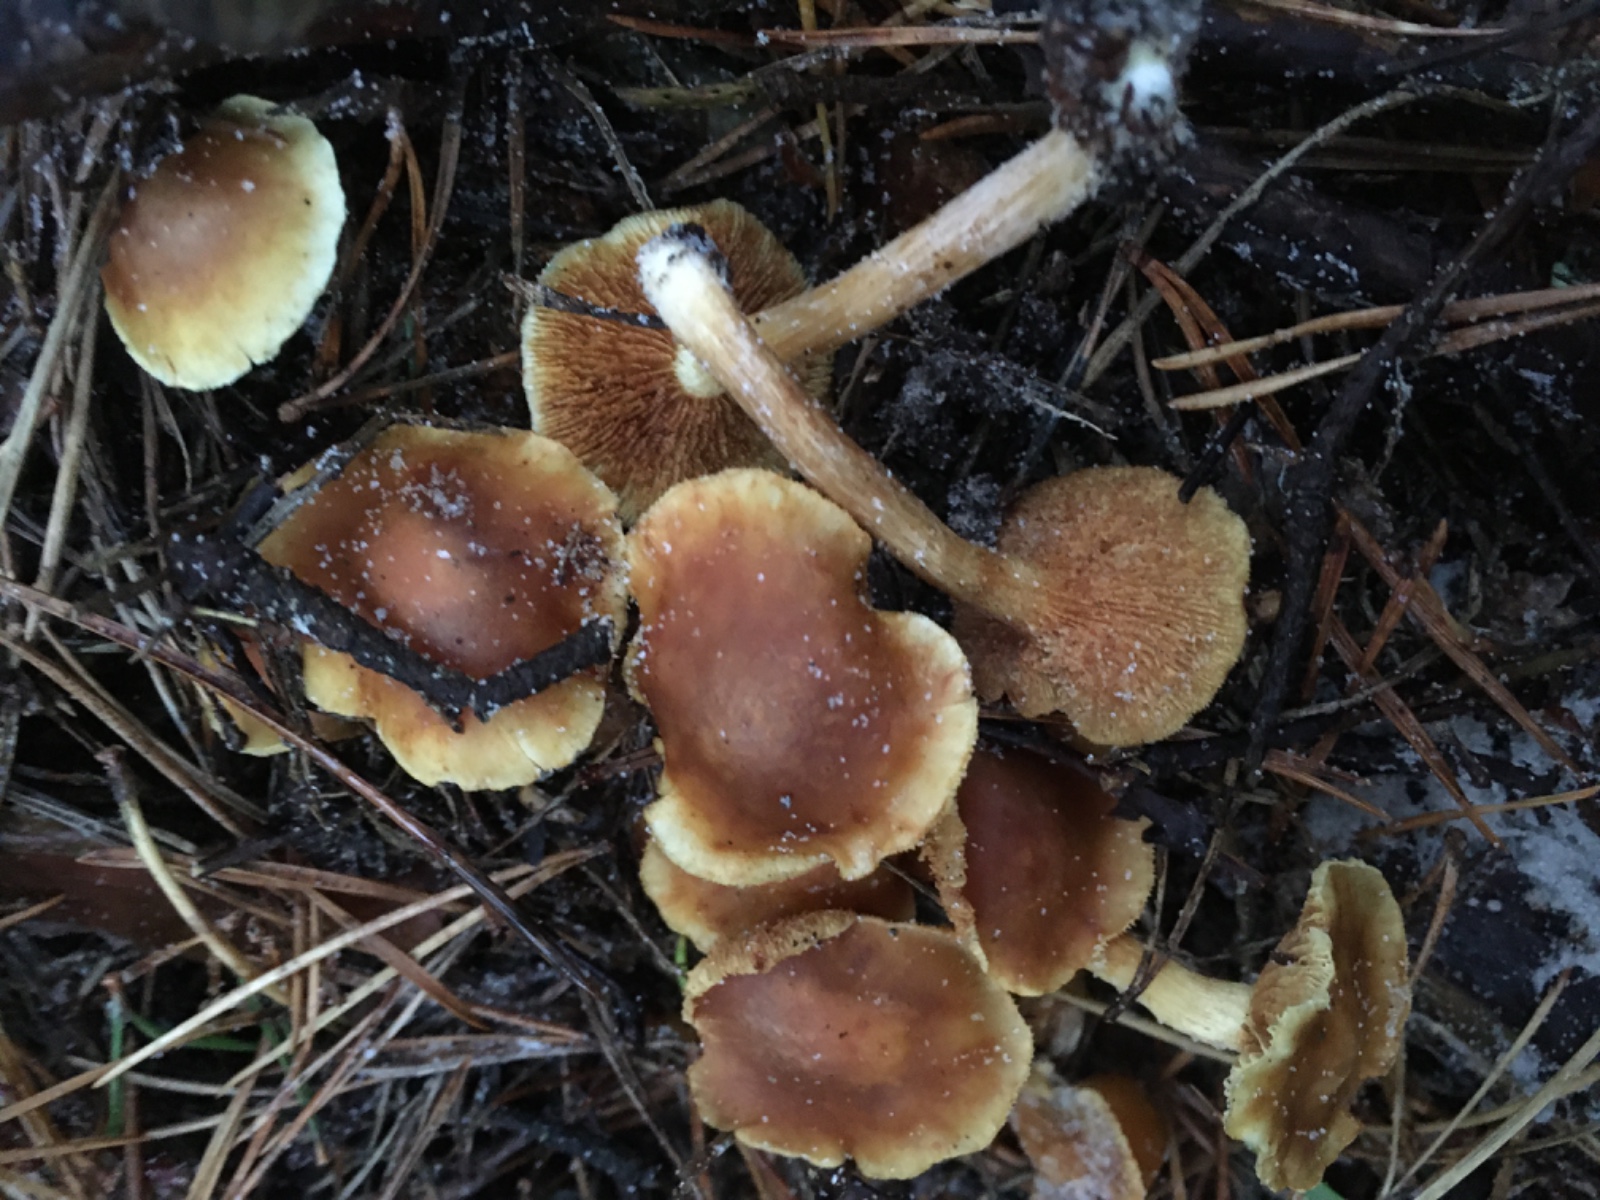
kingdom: Fungi
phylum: Basidiomycota
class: Agaricomycetes
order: Agaricales
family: Hymenogastraceae
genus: Gymnopilus
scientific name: Gymnopilus penetrans
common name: plettet flammehat
